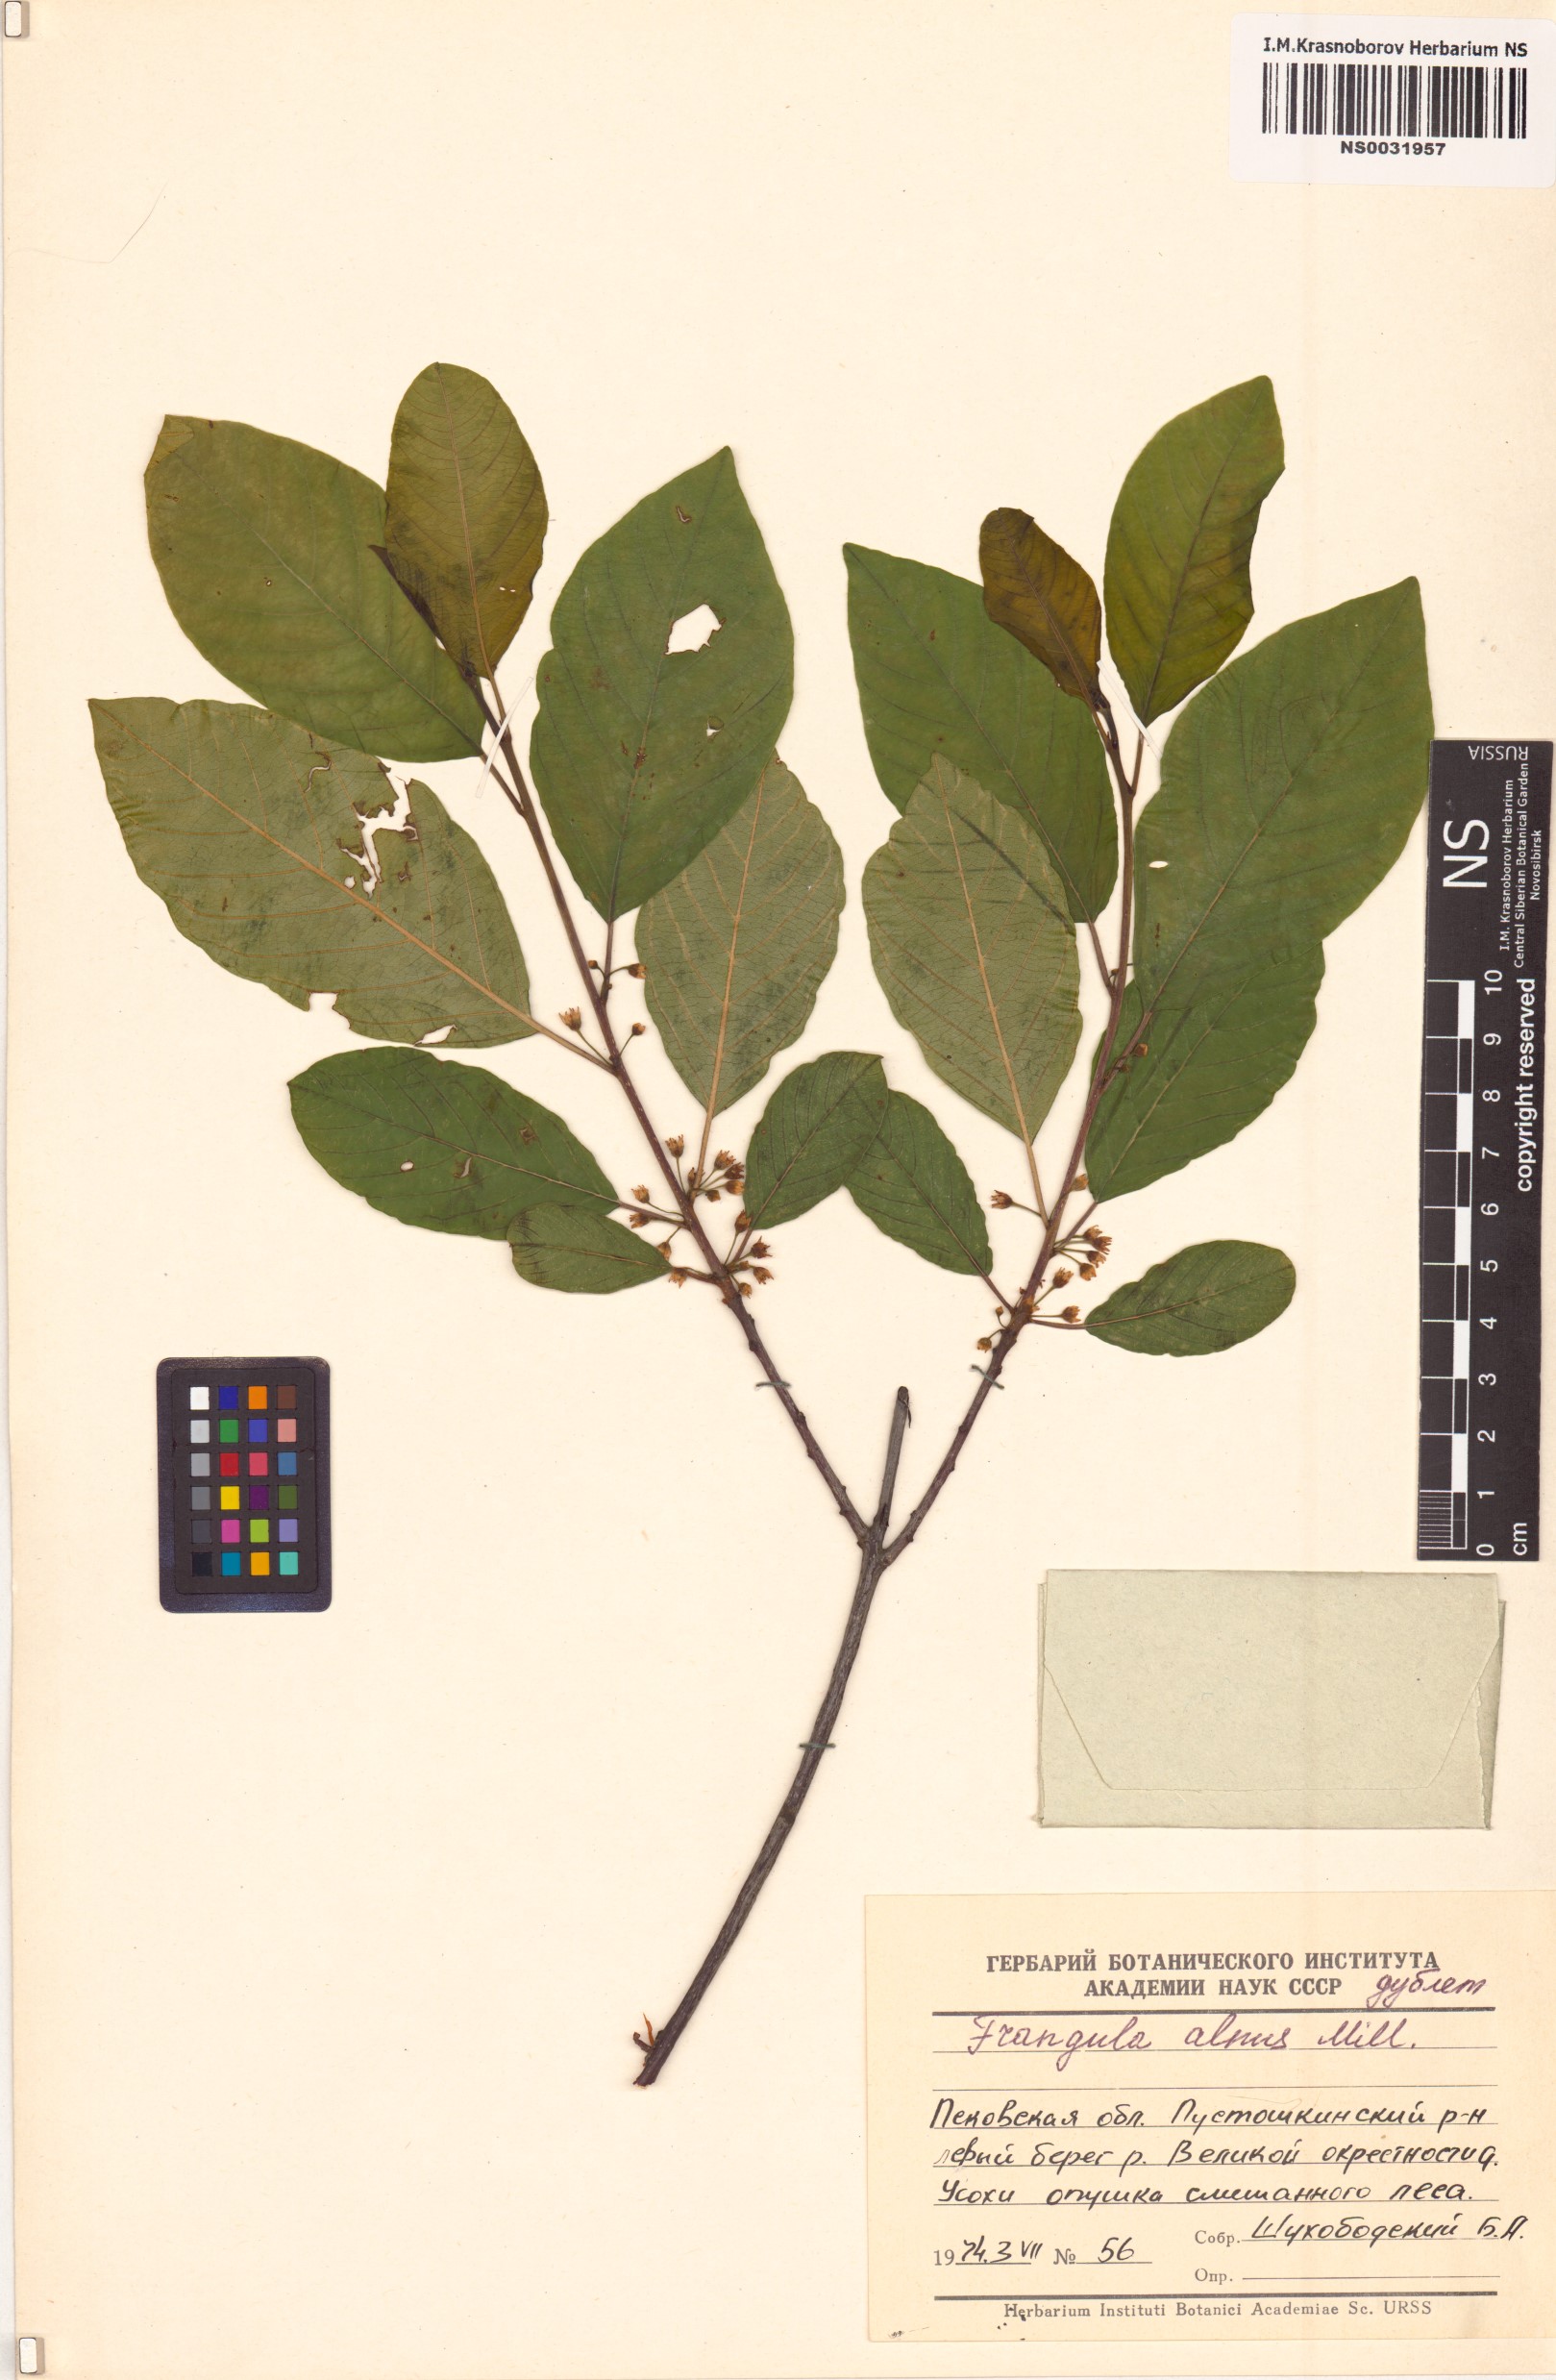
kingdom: Plantae
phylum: Tracheophyta
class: Magnoliopsida
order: Rosales
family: Rhamnaceae
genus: Frangula
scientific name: Frangula alnus
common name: Alder buckthorn
